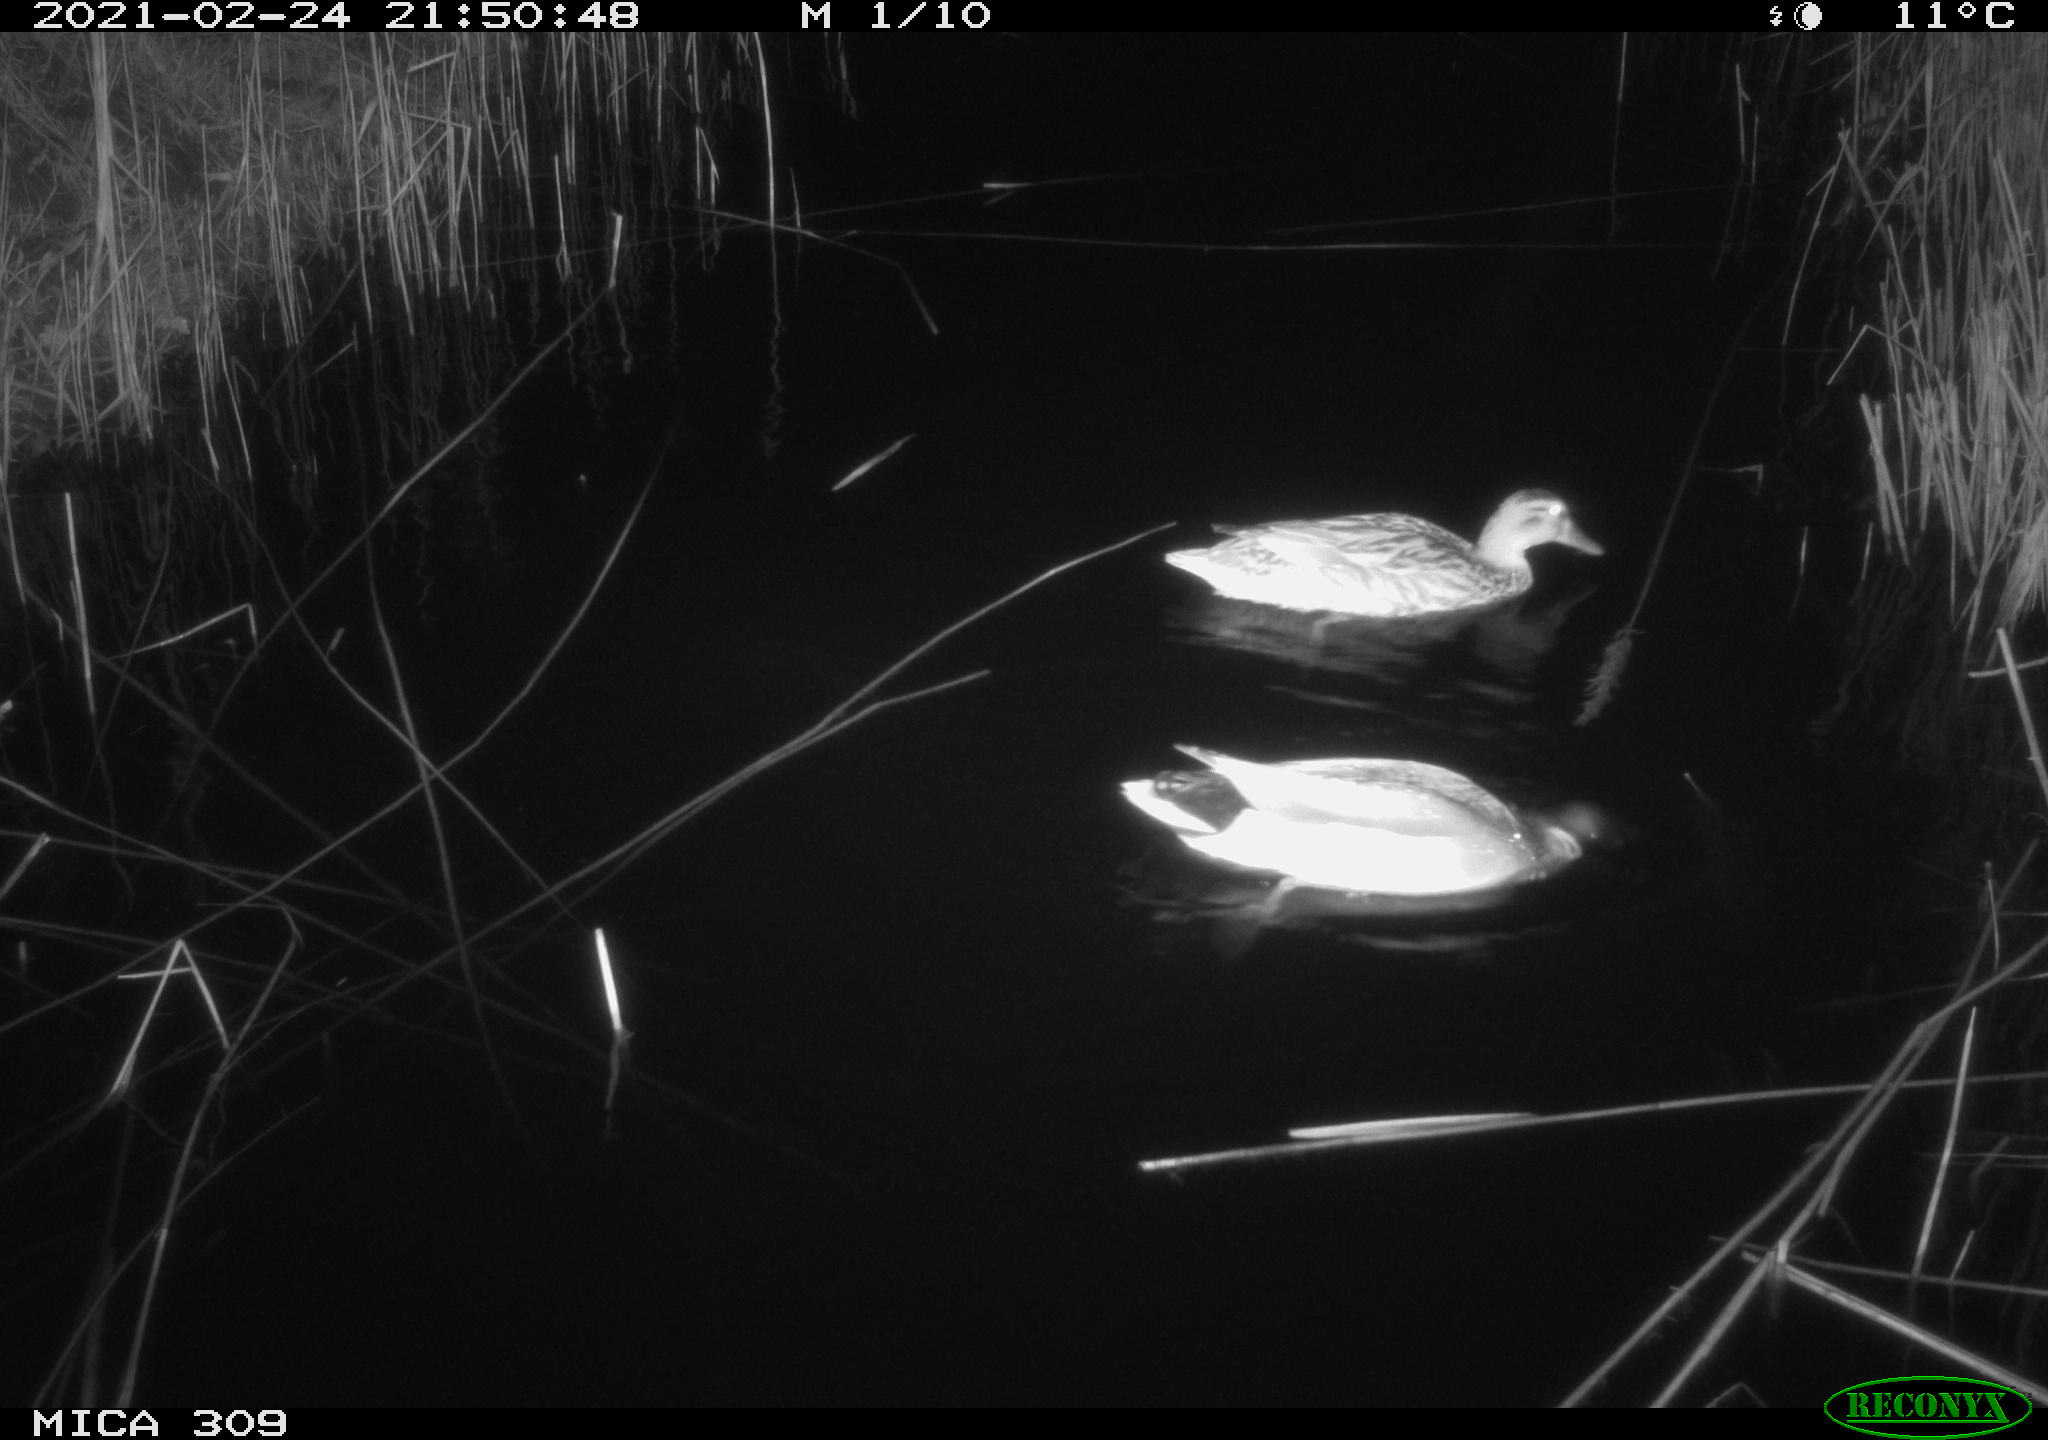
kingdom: Animalia
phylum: Chordata
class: Aves
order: Anseriformes
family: Anatidae
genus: Anas
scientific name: Anas platyrhynchos
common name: Mallard
